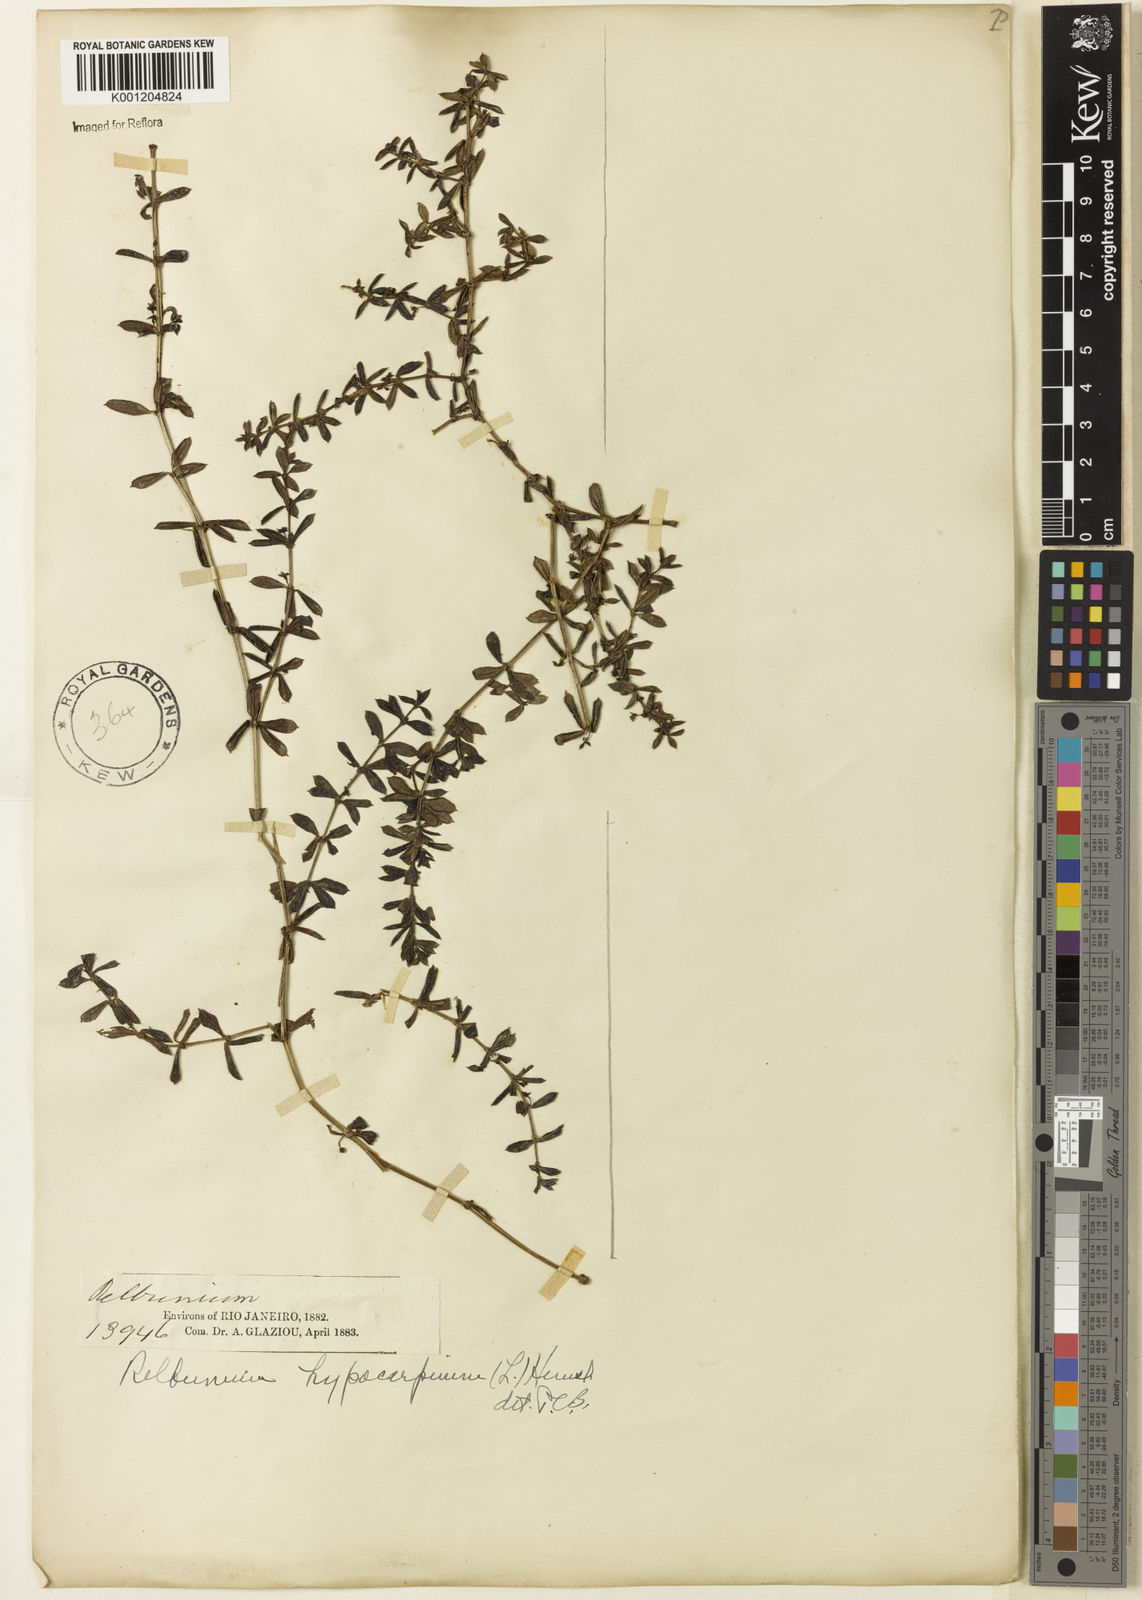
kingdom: Plantae
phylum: Tracheophyta
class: Magnoliopsida
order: Gentianales
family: Rubiaceae
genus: Galium
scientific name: Galium hypocarpium
